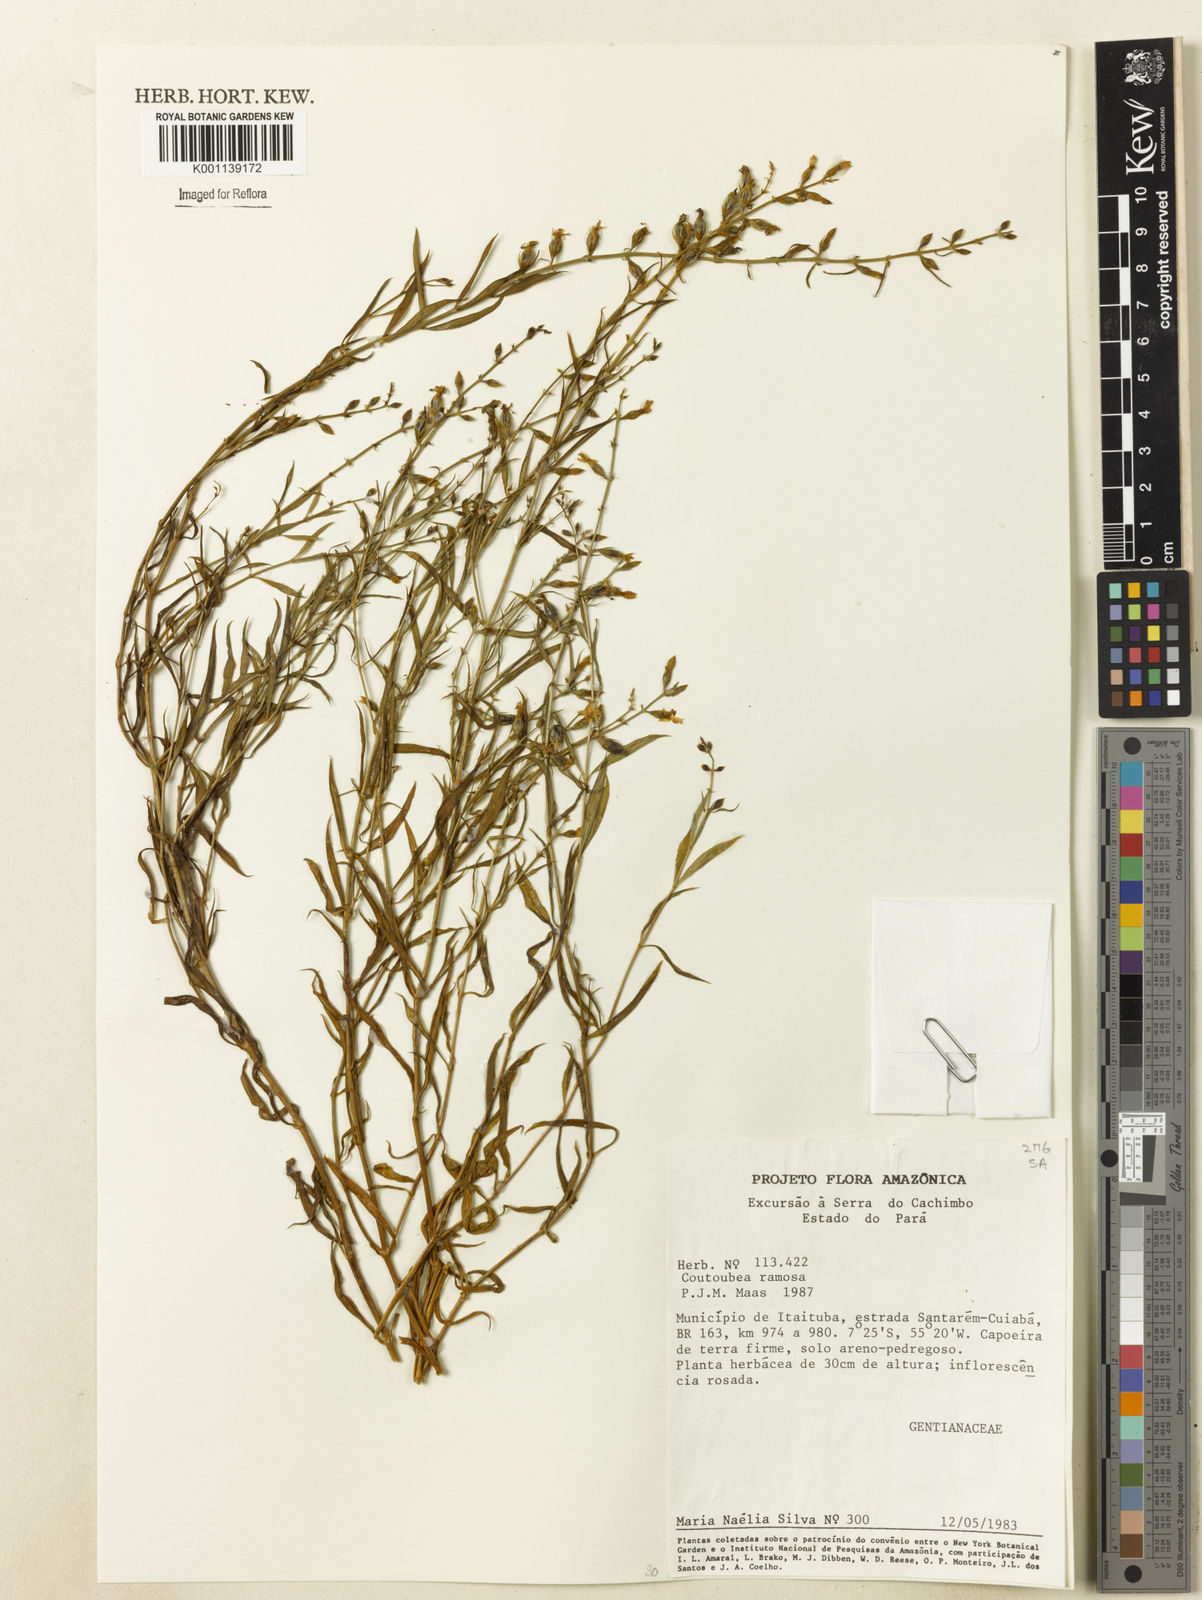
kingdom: Plantae
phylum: Tracheophyta
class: Magnoliopsida
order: Gentianales
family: Gentianaceae
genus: Coutoubea
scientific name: Coutoubea ramosa
